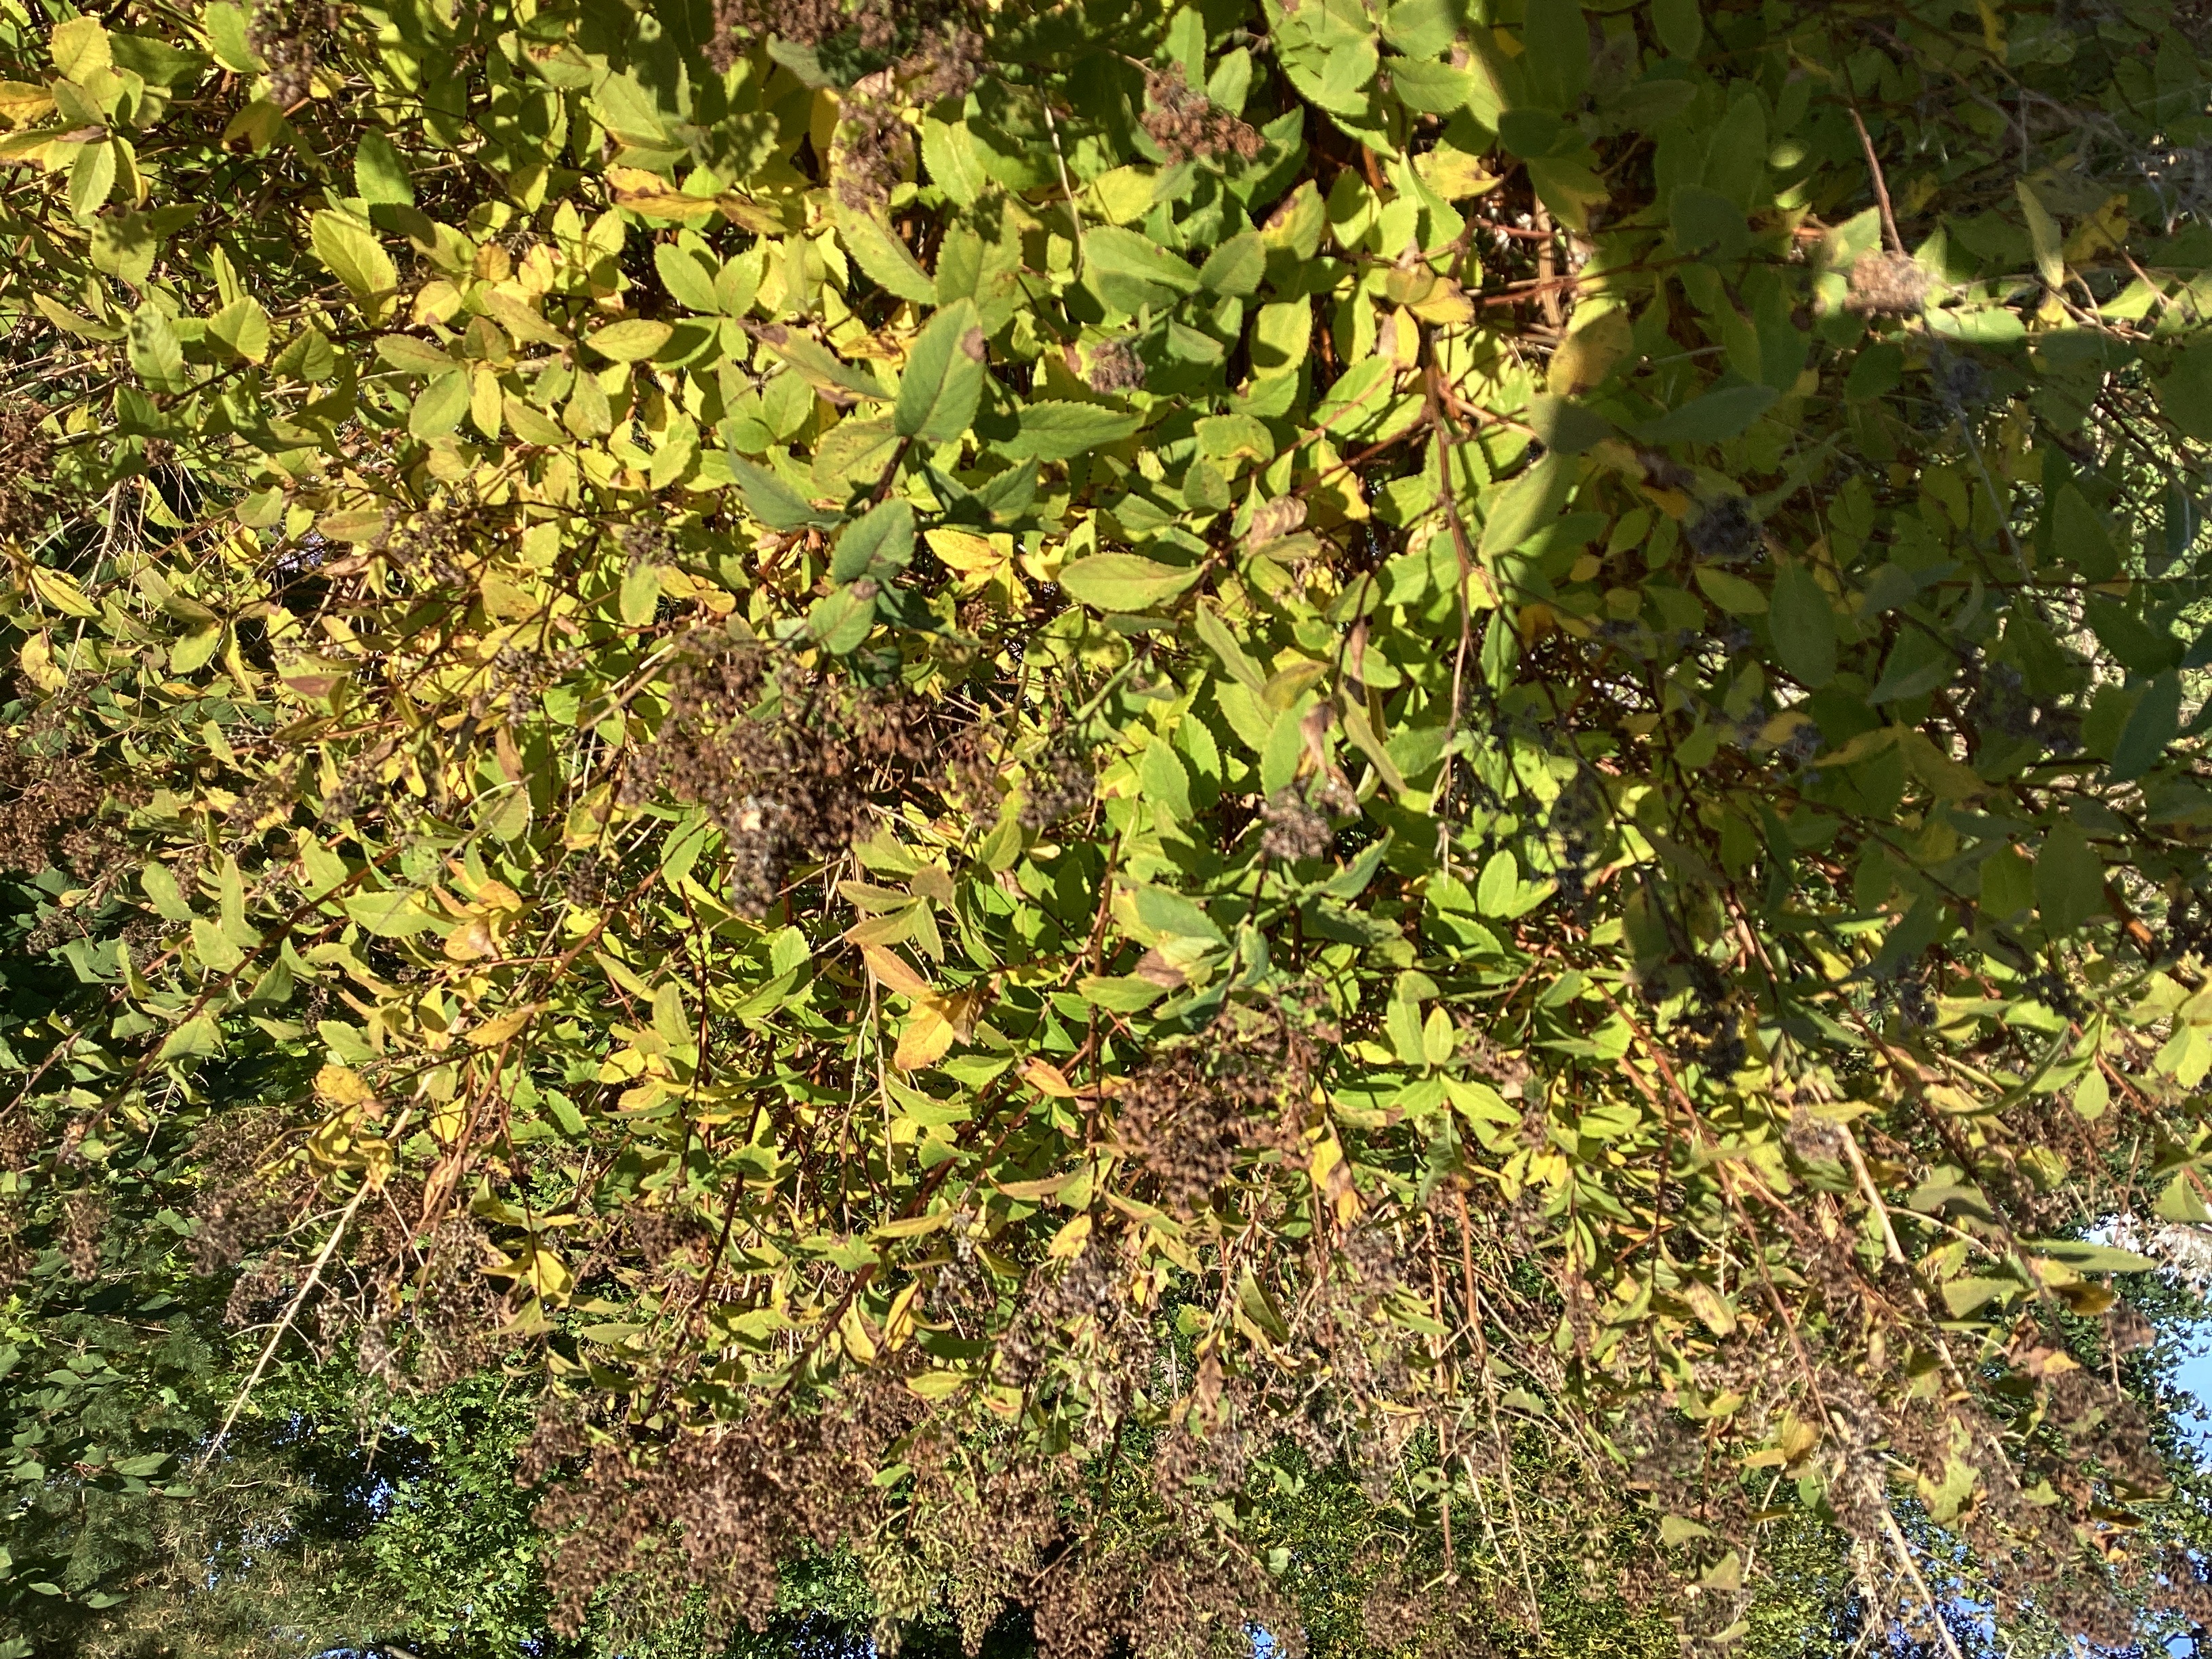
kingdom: Plantae
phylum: Tracheophyta
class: Magnoliopsida
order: Rosales
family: Rosaceae
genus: Spiraea
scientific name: Spiraea alba
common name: hvitspirea
